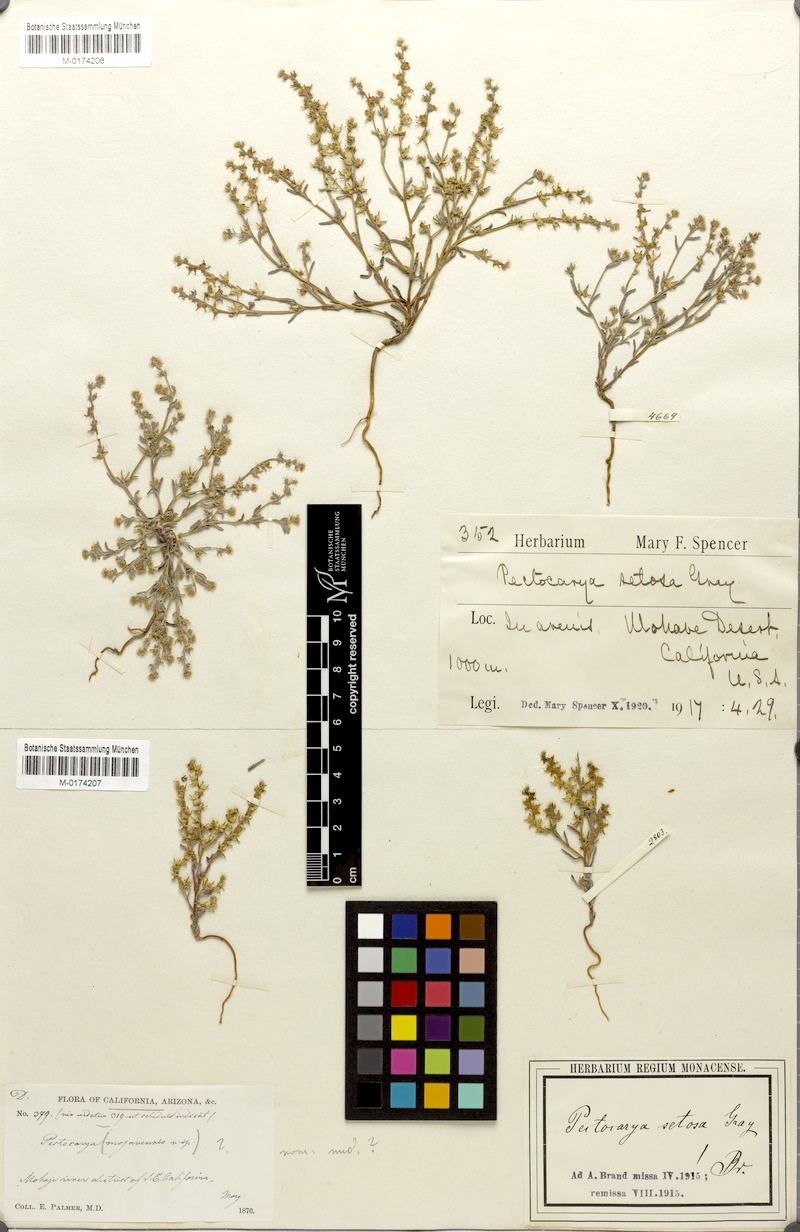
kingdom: Plantae
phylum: Tracheophyta
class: Magnoliopsida
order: Boraginales
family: Boraginaceae
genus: Pectocarya
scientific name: Pectocarya setosa
